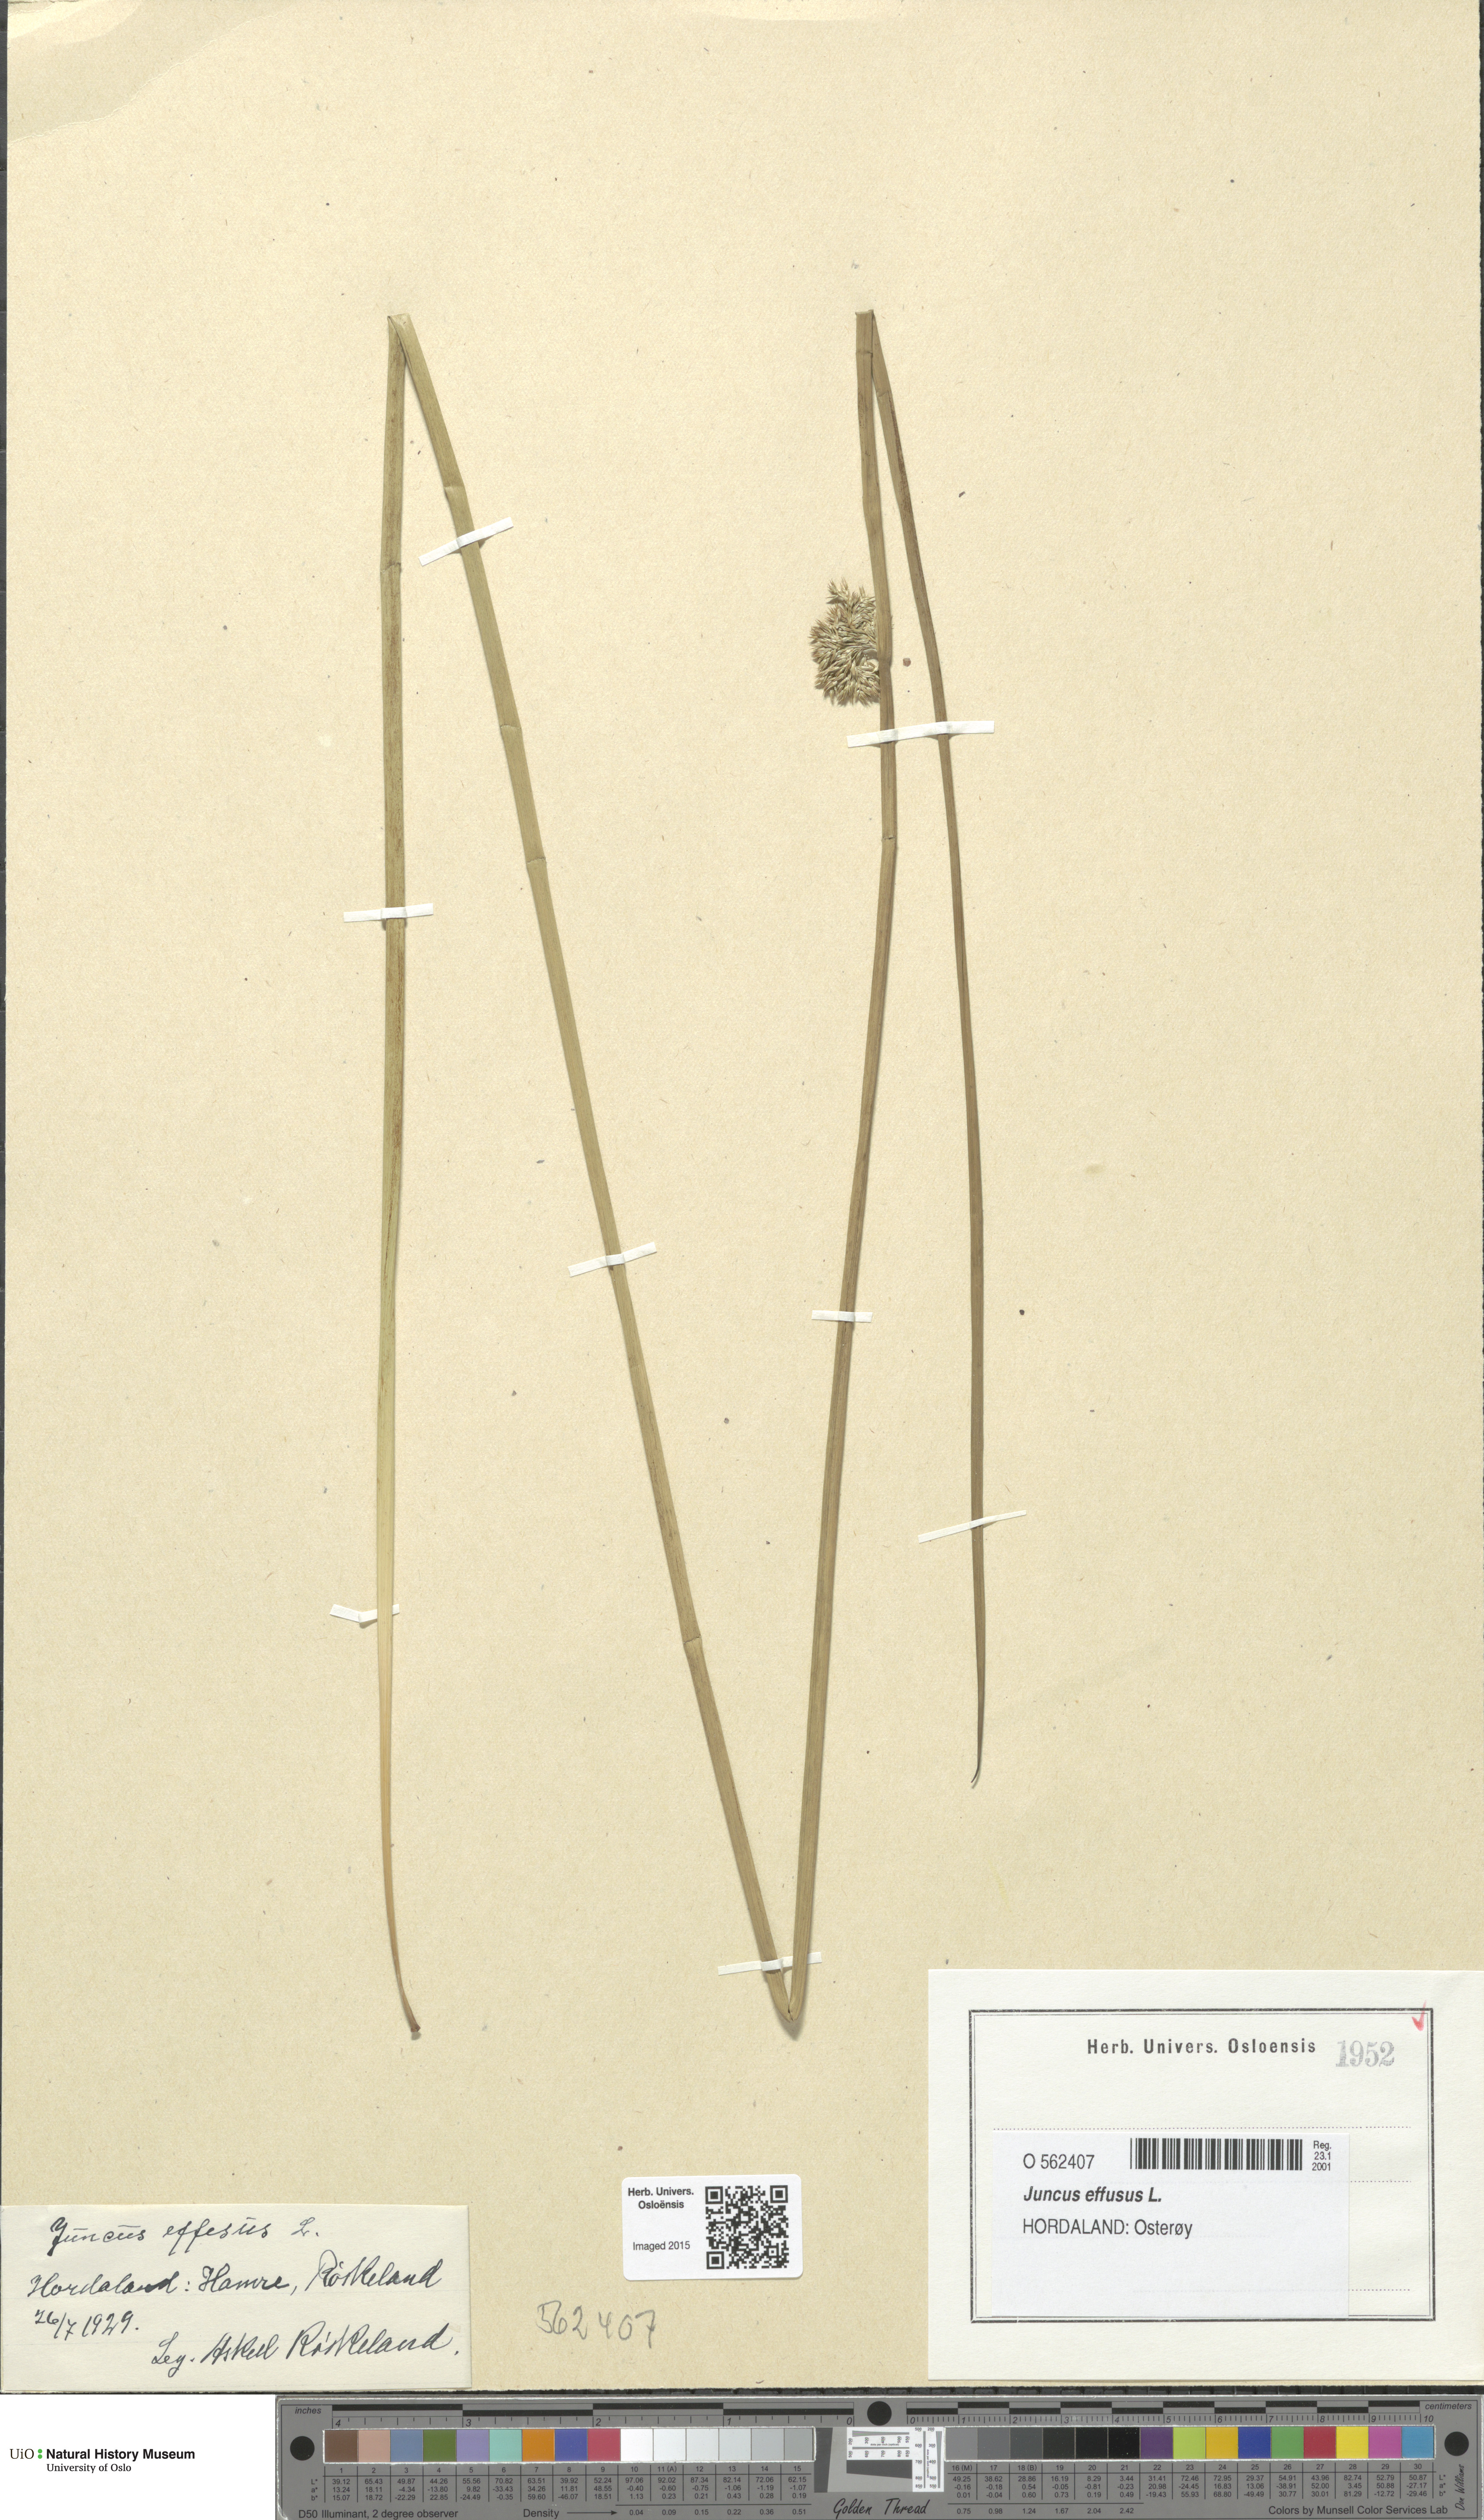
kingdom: Plantae
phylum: Tracheophyta
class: Liliopsida
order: Poales
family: Juncaceae
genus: Juncus
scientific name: Juncus effusus
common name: Soft rush
